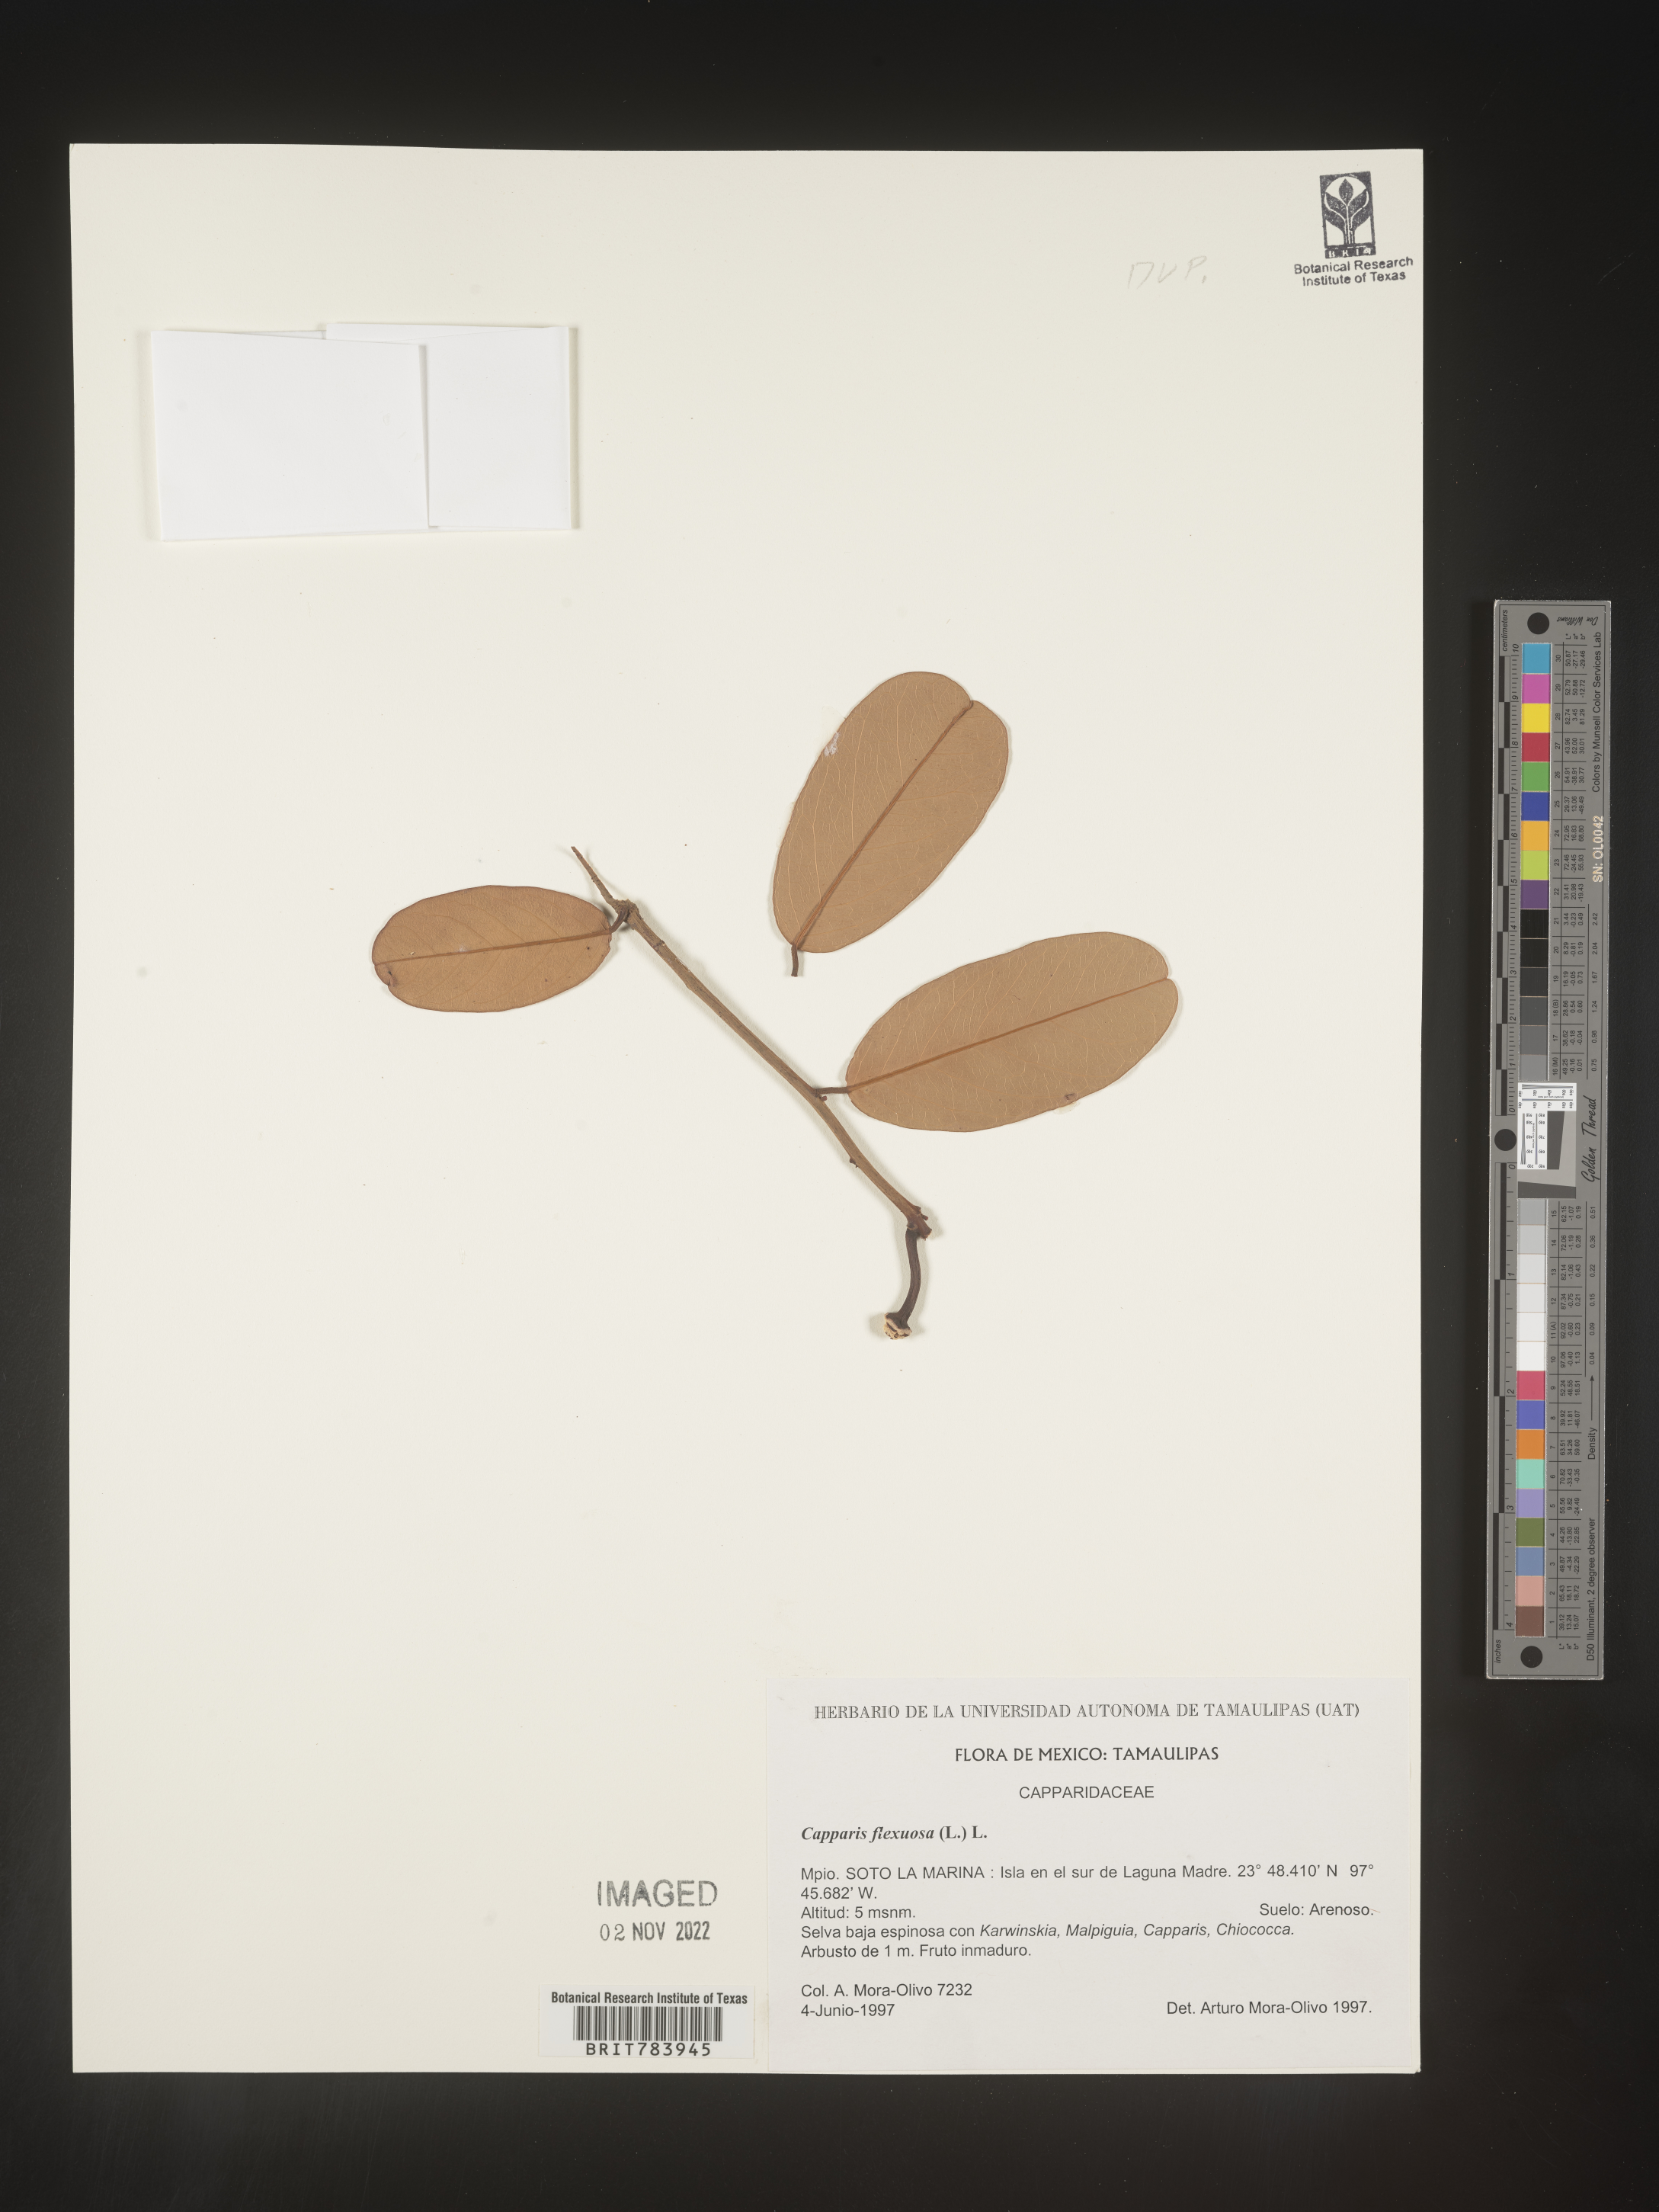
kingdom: Plantae
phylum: Tracheophyta
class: Magnoliopsida
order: Brassicales
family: Capparaceae
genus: Capparis
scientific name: Capparis
